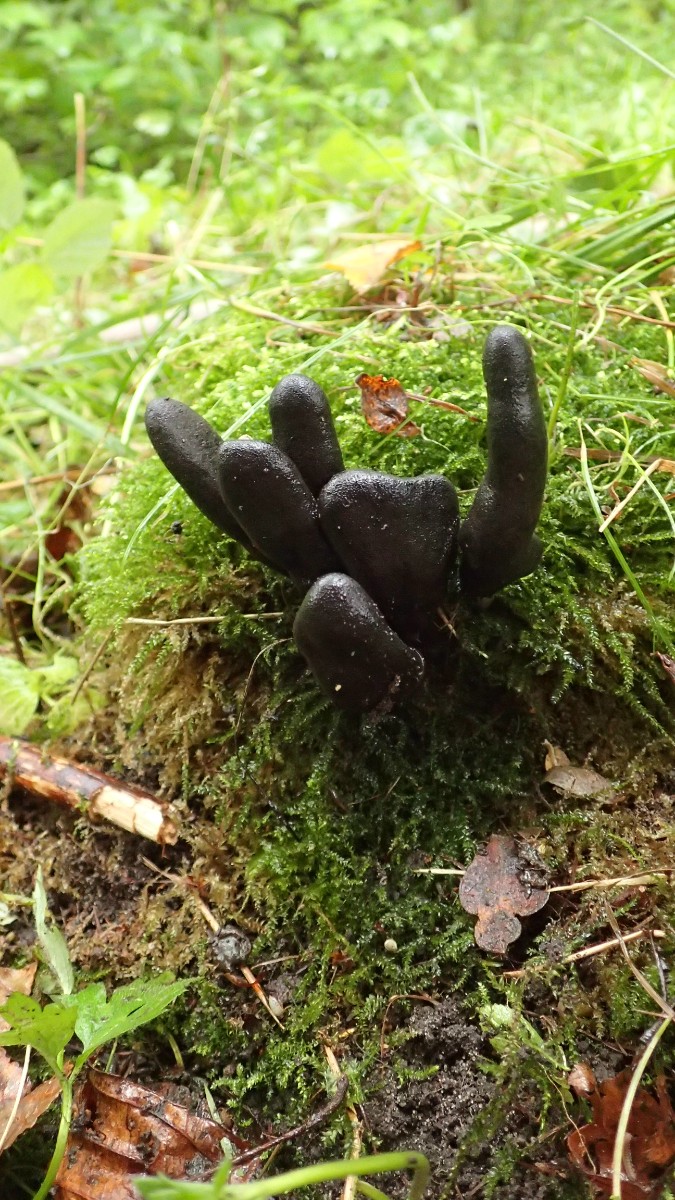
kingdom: Fungi
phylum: Ascomycota
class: Sordariomycetes
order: Xylariales
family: Xylariaceae
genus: Xylaria
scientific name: Xylaria polymorpha
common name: kølle-stødsvamp
